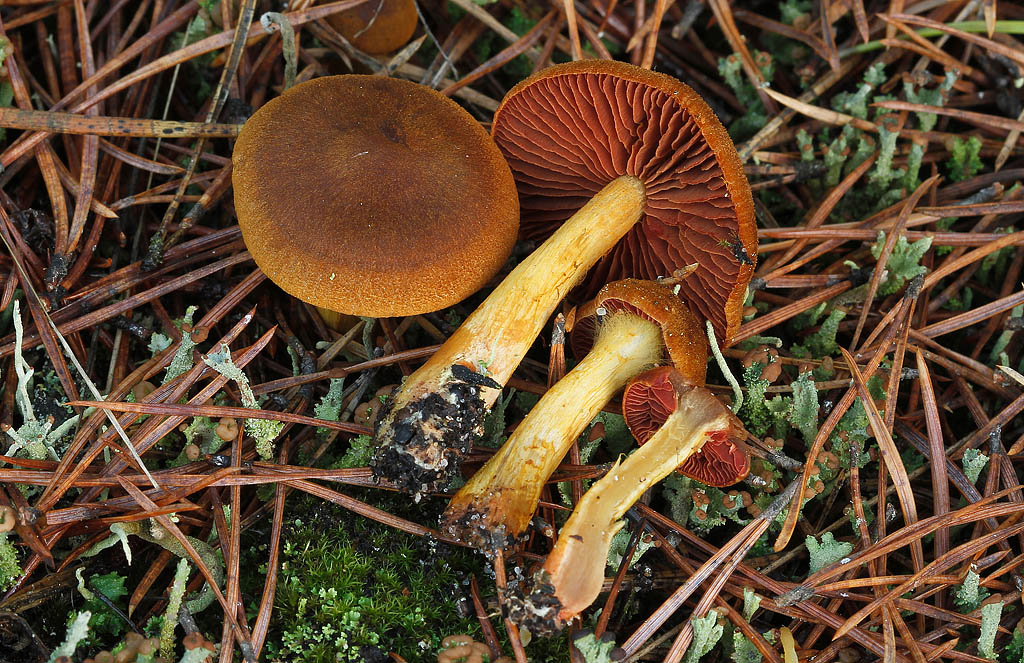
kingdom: Fungi
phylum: Basidiomycota
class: Agaricomycetes
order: Agaricales
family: Cortinariaceae
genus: Cortinarius
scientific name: Cortinarius
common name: cinnoberbladet slørhat
